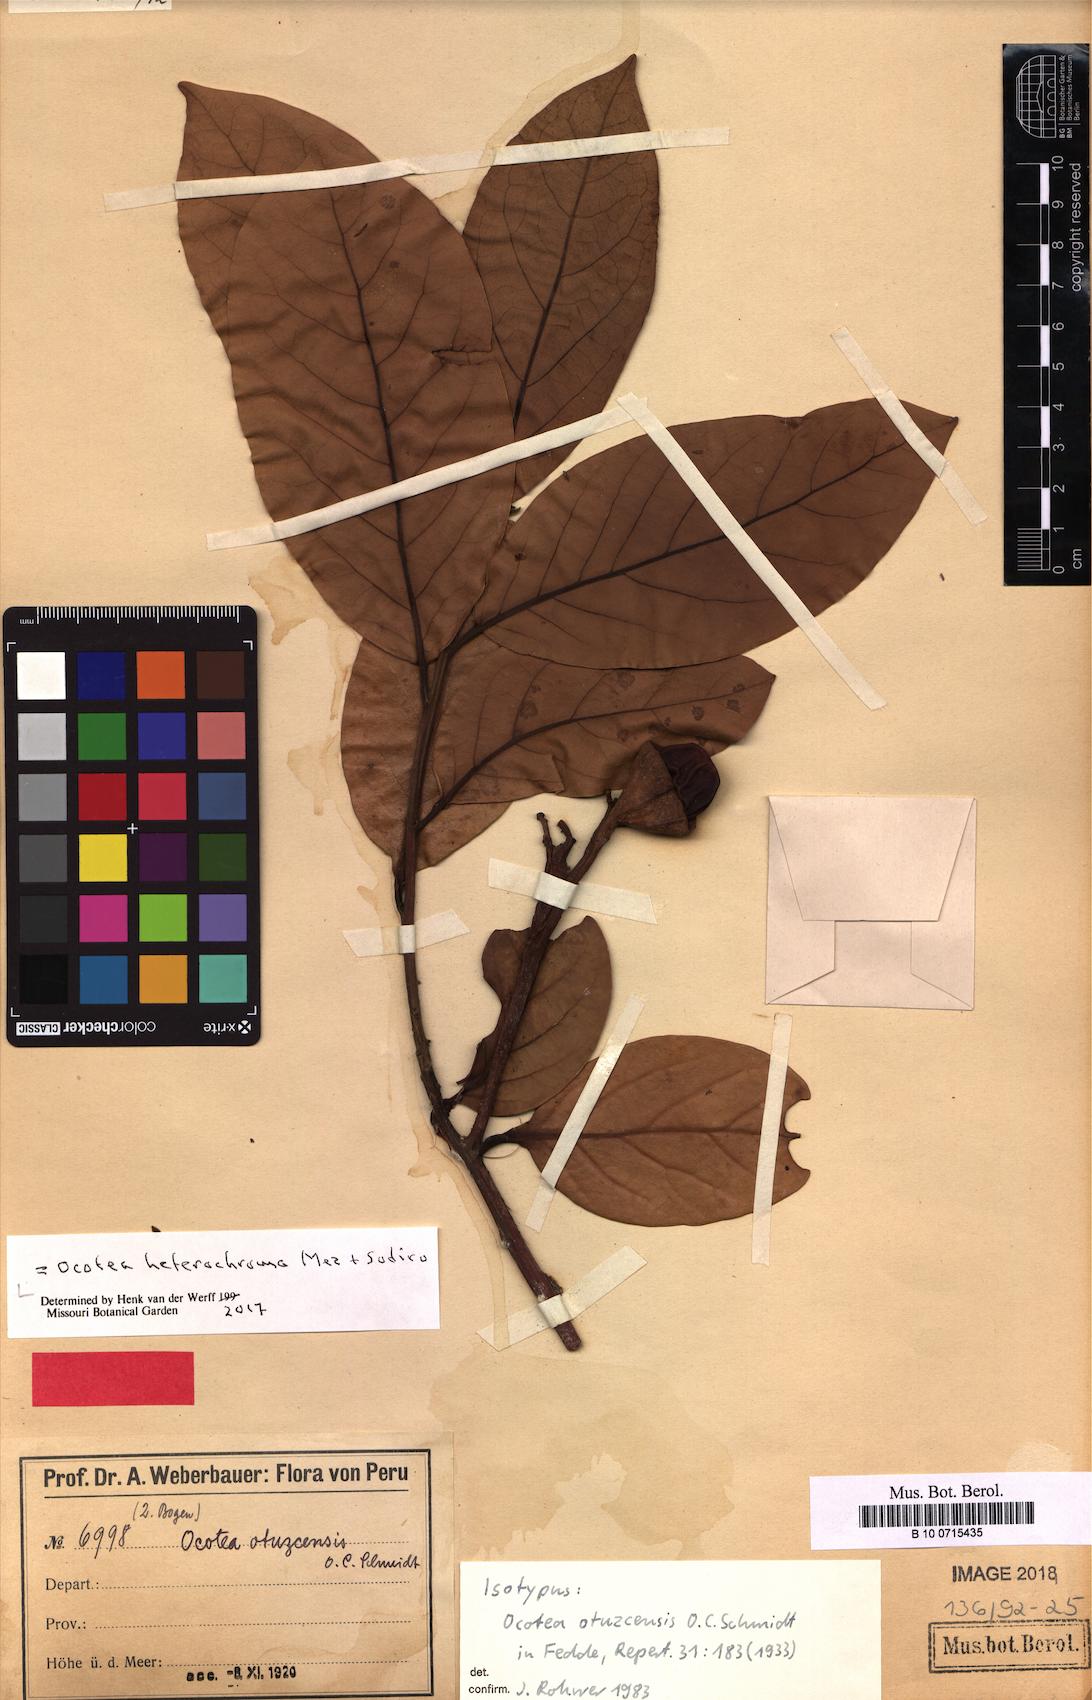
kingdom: Plantae
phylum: Tracheophyta
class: Magnoliopsida
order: Laurales
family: Lauraceae
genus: Ocotea
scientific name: Ocotea heterochroma
